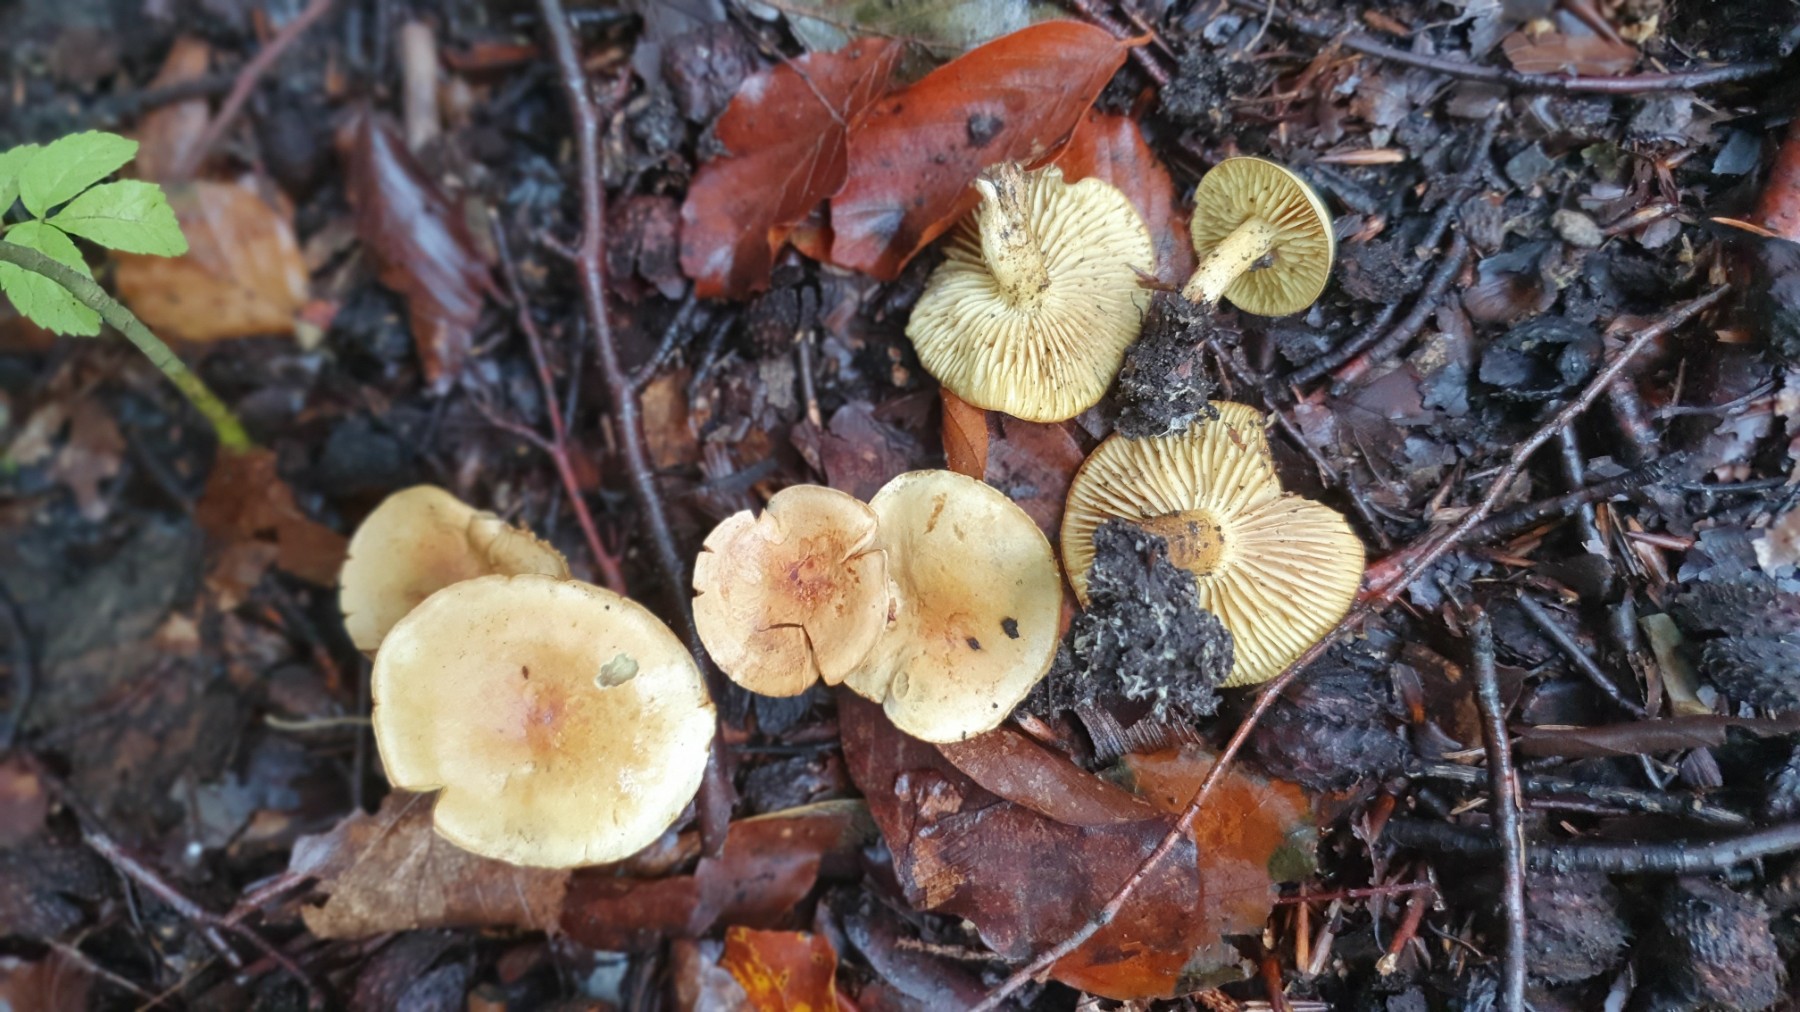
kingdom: Fungi
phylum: Basidiomycota
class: Agaricomycetes
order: Agaricales
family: Tricholomataceae
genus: Tricholoma
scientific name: Tricholoma sulphureum
